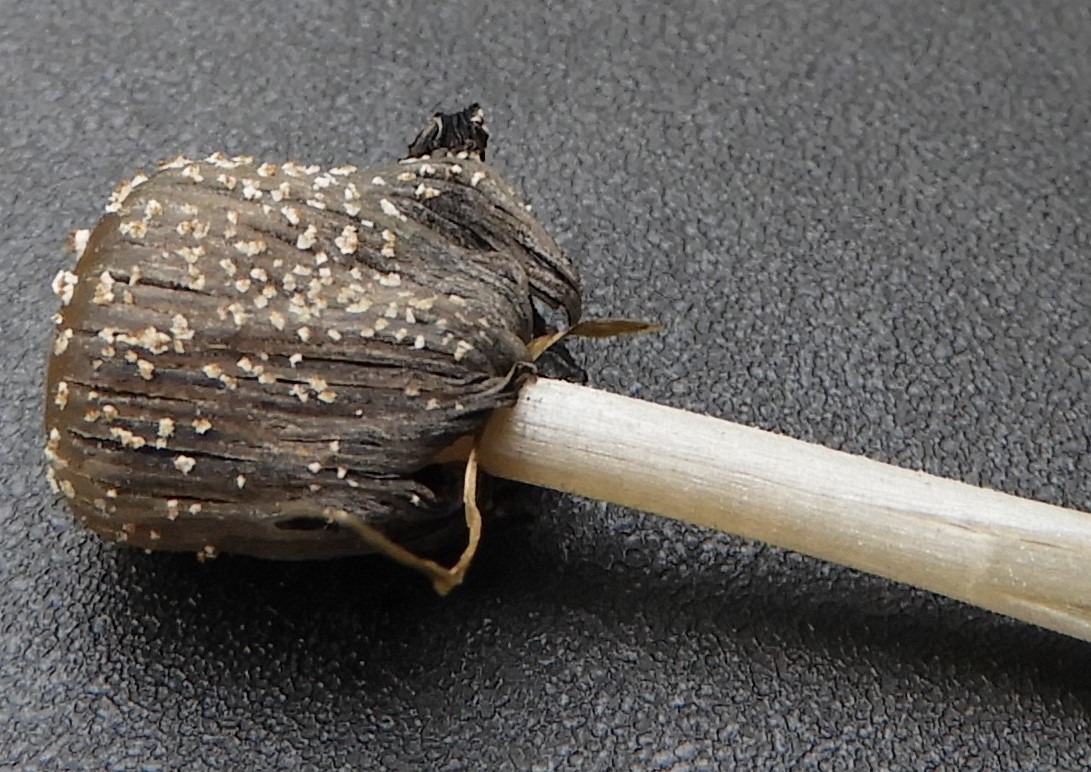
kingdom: Fungi
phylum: Basidiomycota
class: Agaricomycetes
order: Agaricales
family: Psathyrellaceae
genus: Coprinellus
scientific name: Coprinellus domesticus
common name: hus-blækhat
